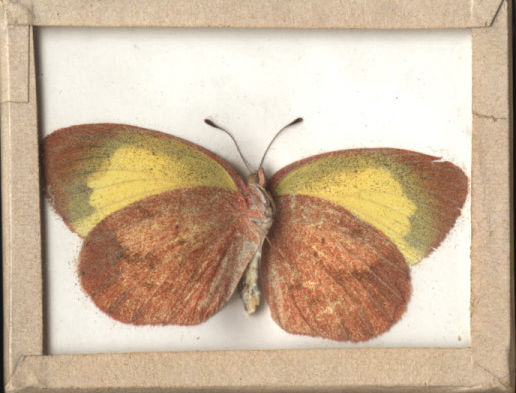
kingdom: Animalia
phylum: Arthropoda
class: Insecta
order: Lepidoptera
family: Pieridae
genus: Eurema
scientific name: Eurema daira
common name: Barred Yellow
